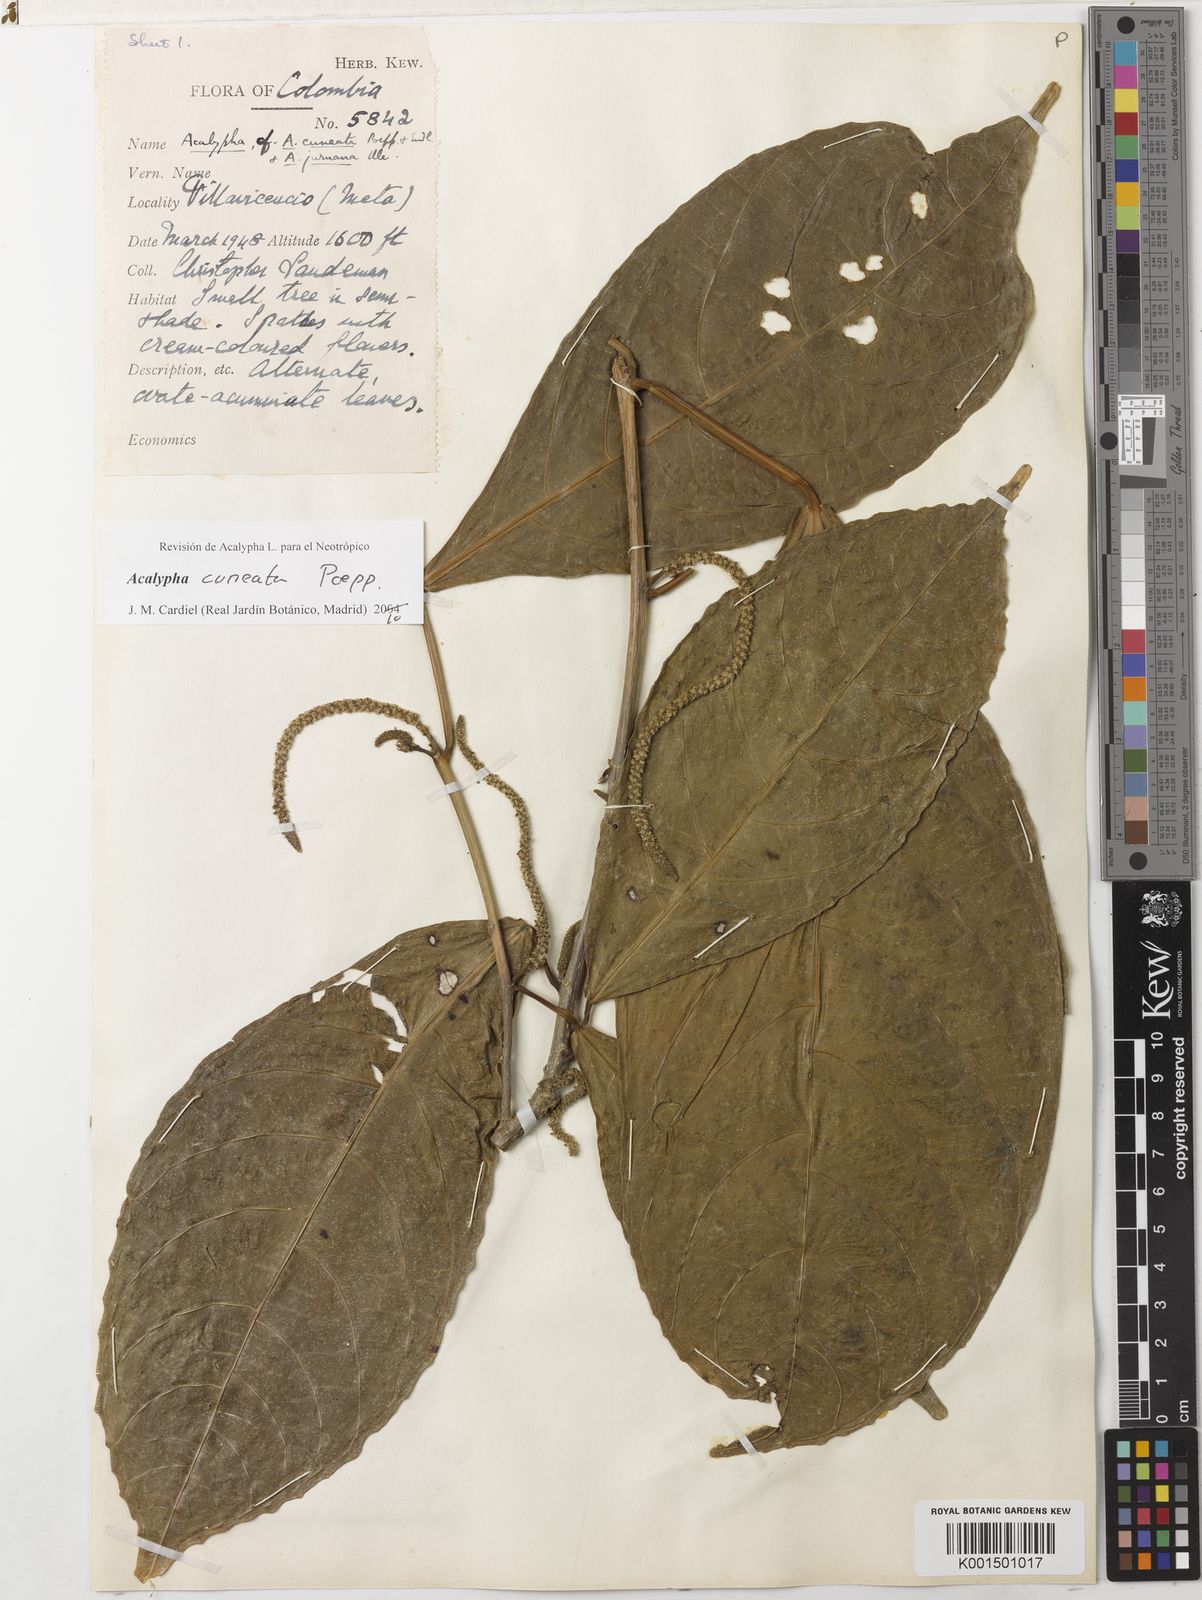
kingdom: Plantae
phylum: Tracheophyta
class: Magnoliopsida
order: Malpighiales
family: Euphorbiaceae
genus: Acalypha
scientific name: Acalypha cuneata
